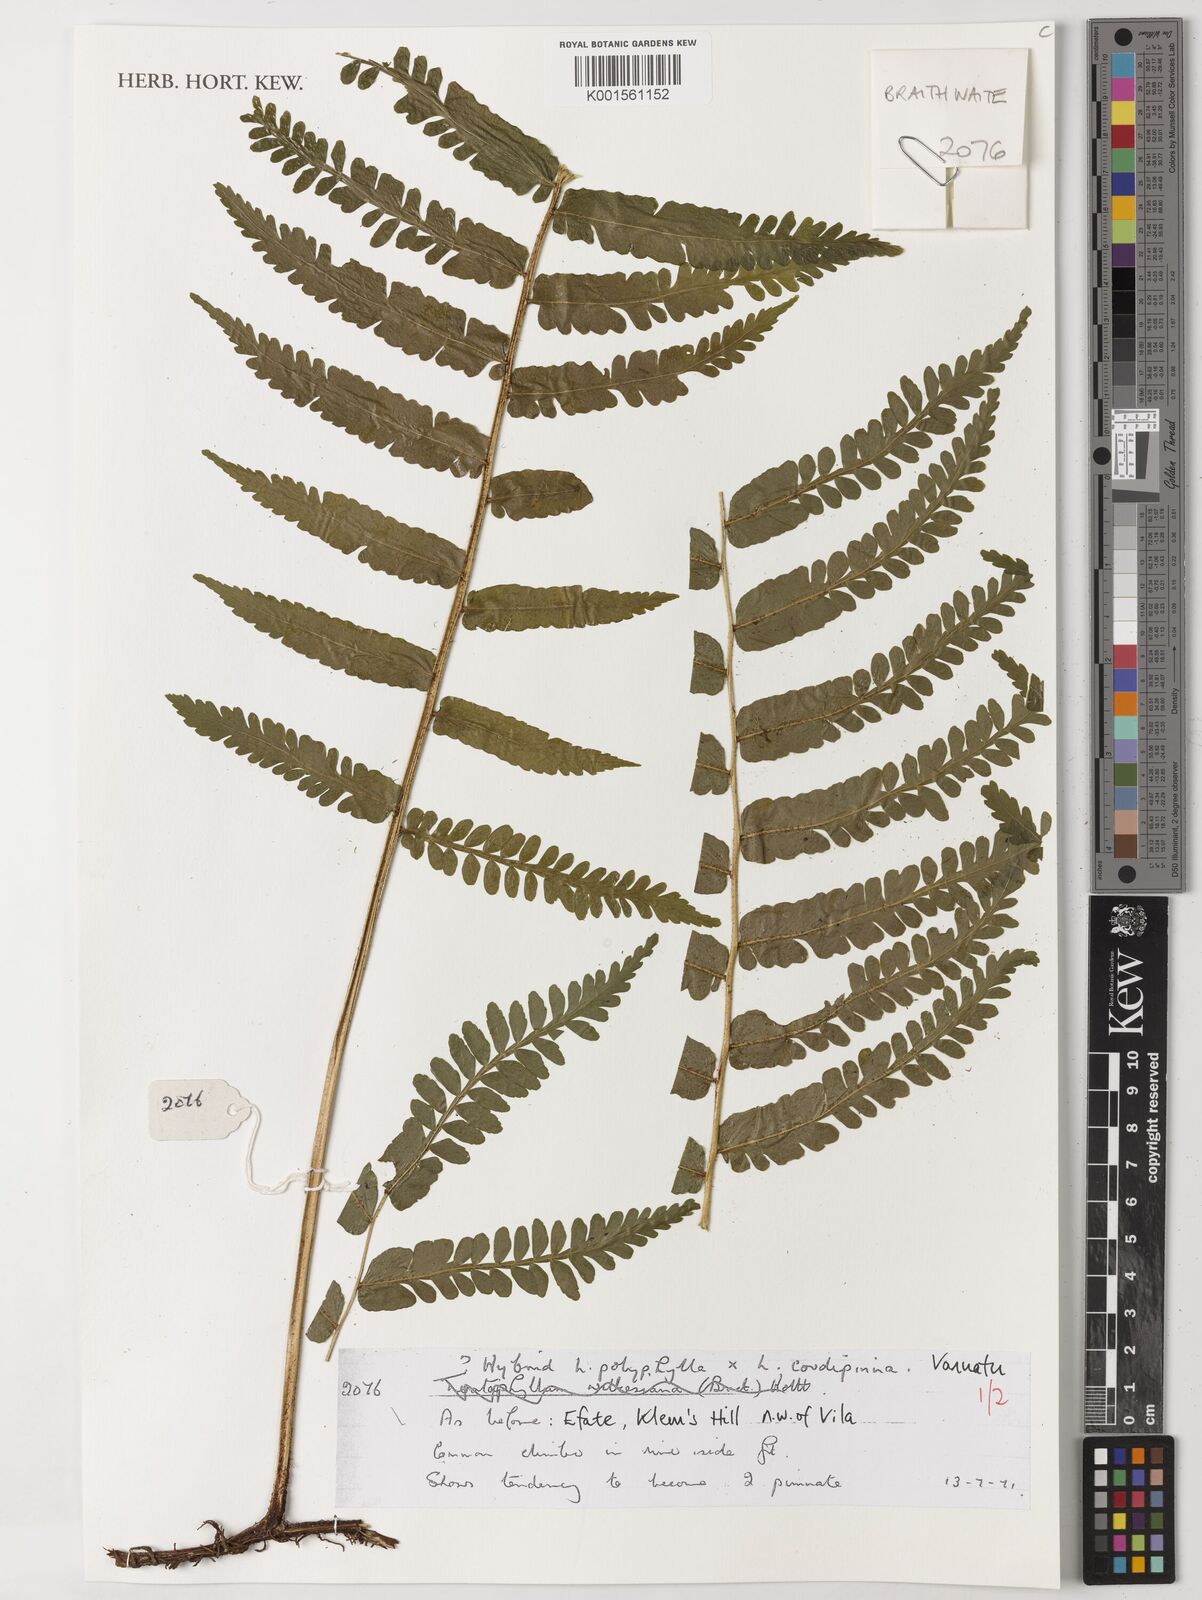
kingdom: Plantae
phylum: Tracheophyta
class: Polypodiopsida
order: Polypodiales
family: Dryopteridaceae
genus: Lomagramma
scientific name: Lomagramma polyphylla
